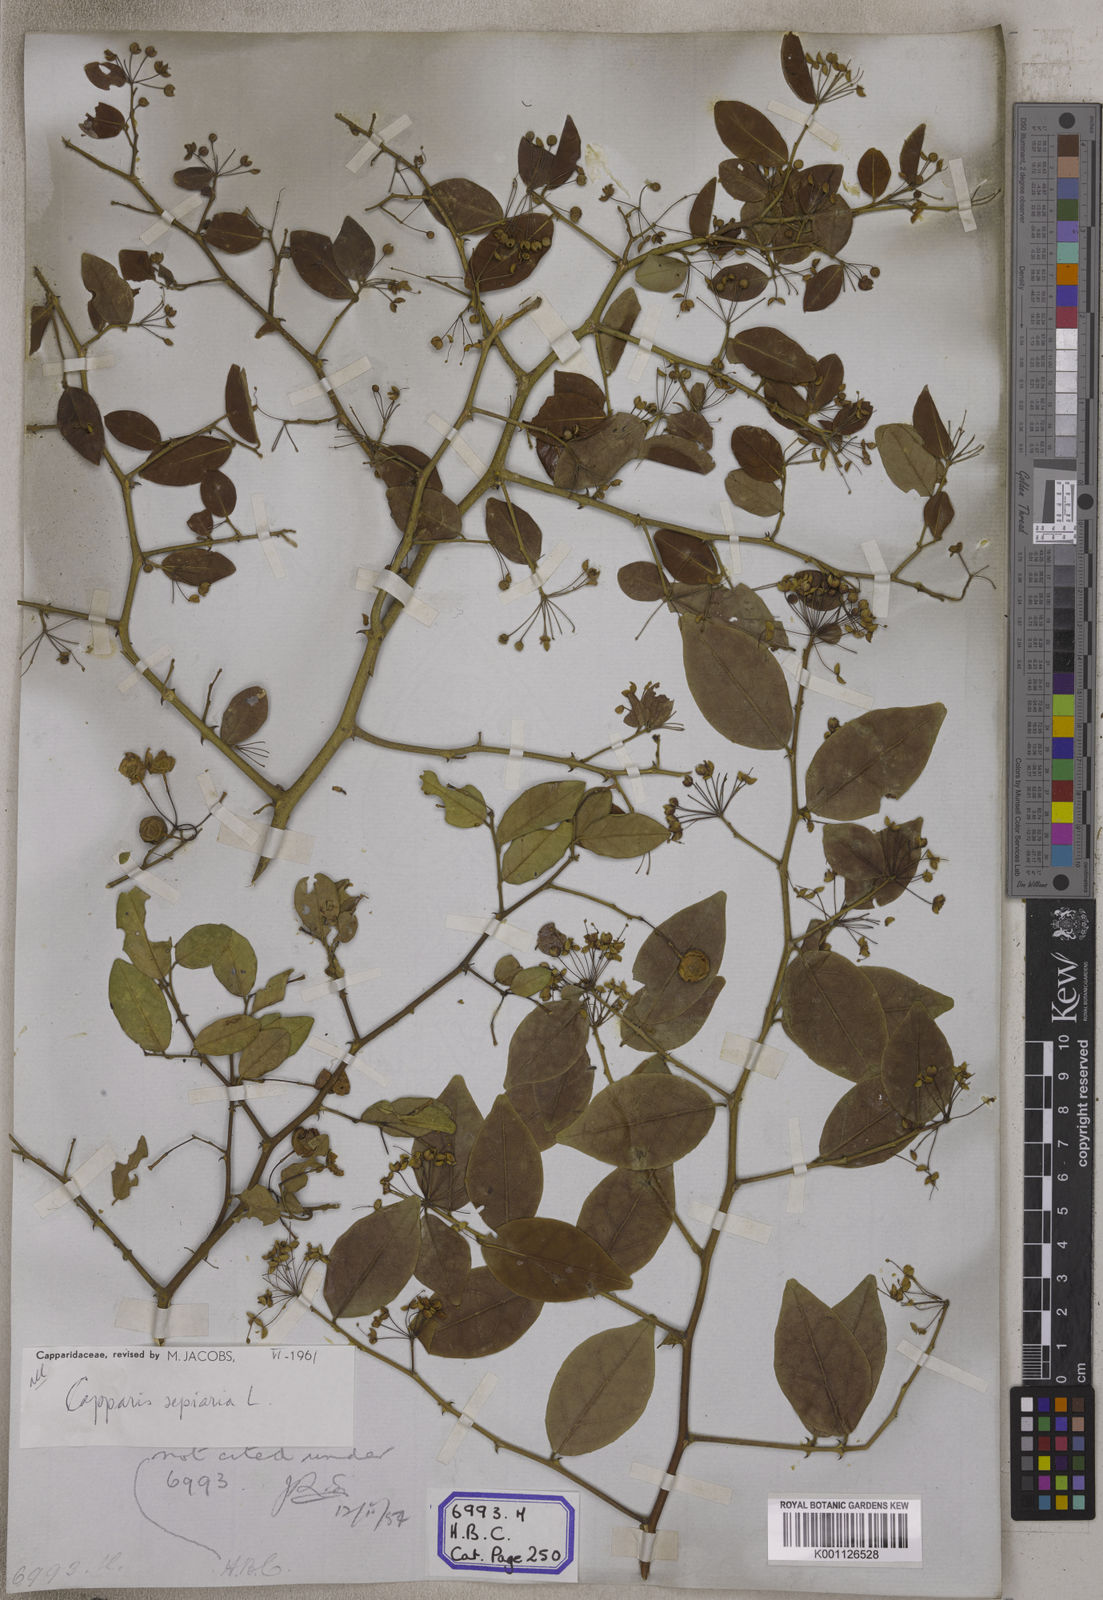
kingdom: Plantae
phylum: Tracheophyta
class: Magnoliopsida
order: Brassicales
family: Capparaceae
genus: Capparis
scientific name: Capparis
